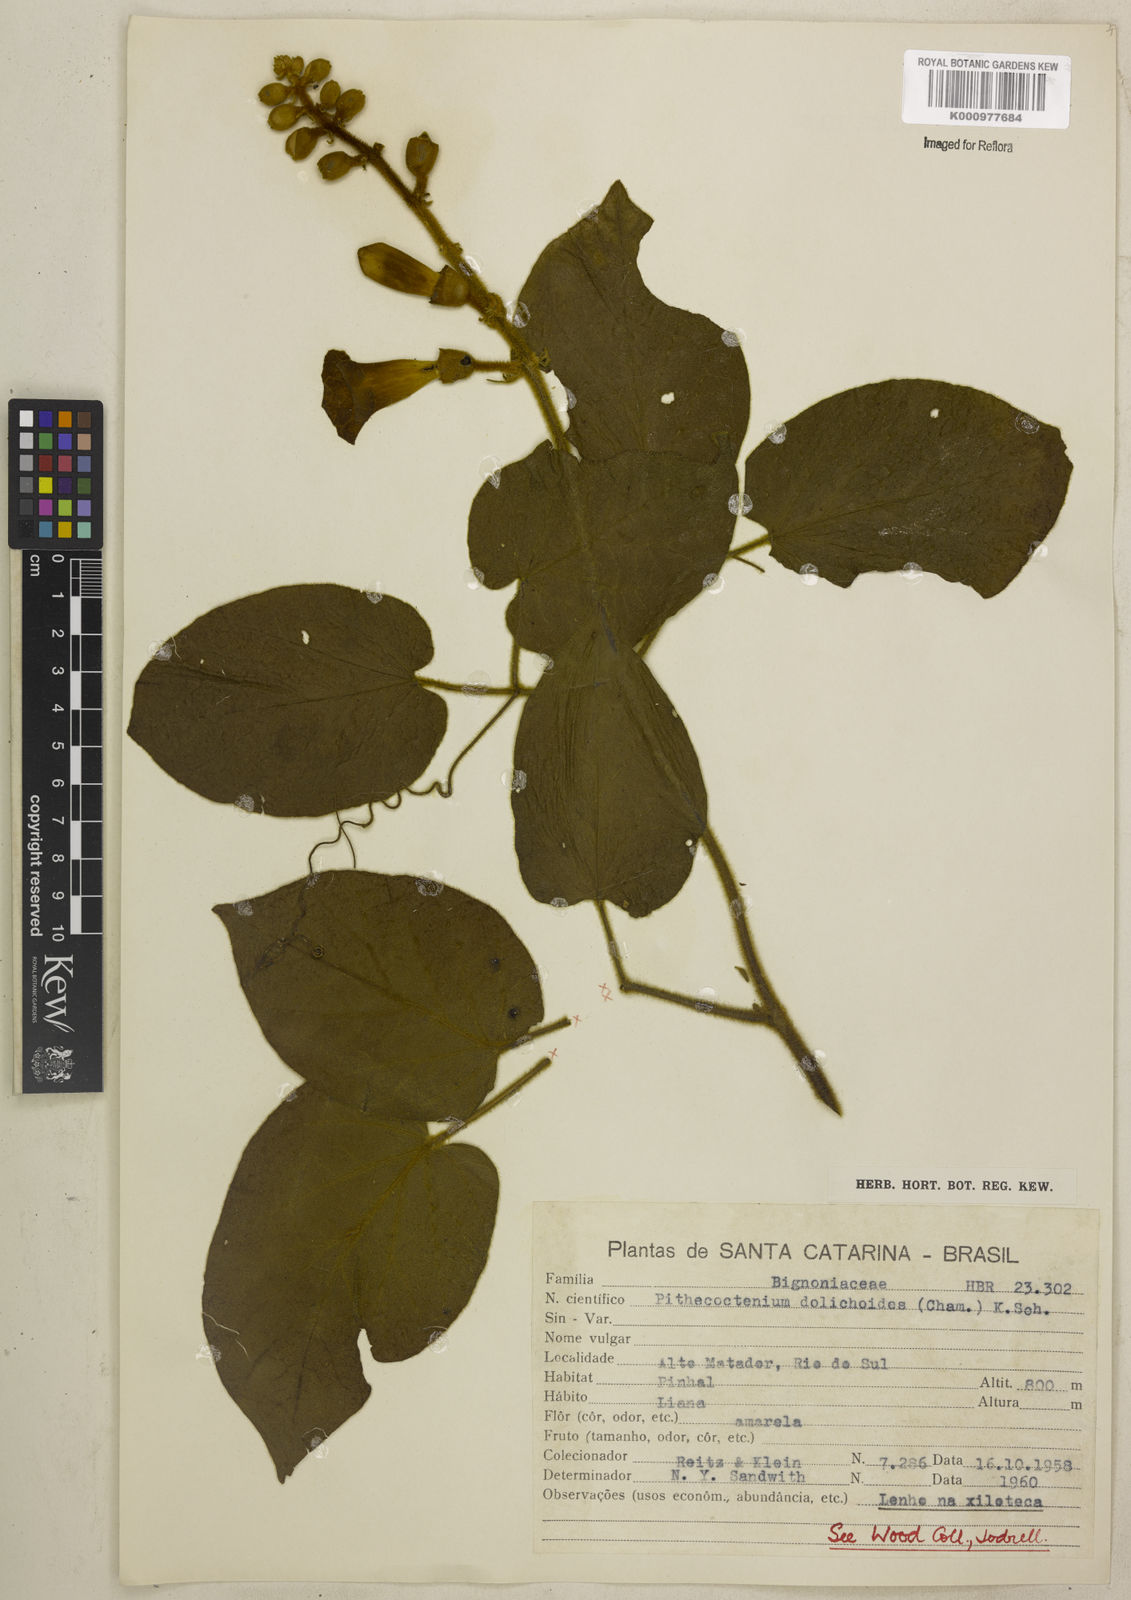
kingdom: Plantae
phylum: Tracheophyta
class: Magnoliopsida
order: Lamiales
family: Bignoniaceae
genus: Amphilophium
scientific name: Amphilophium dolichoides
